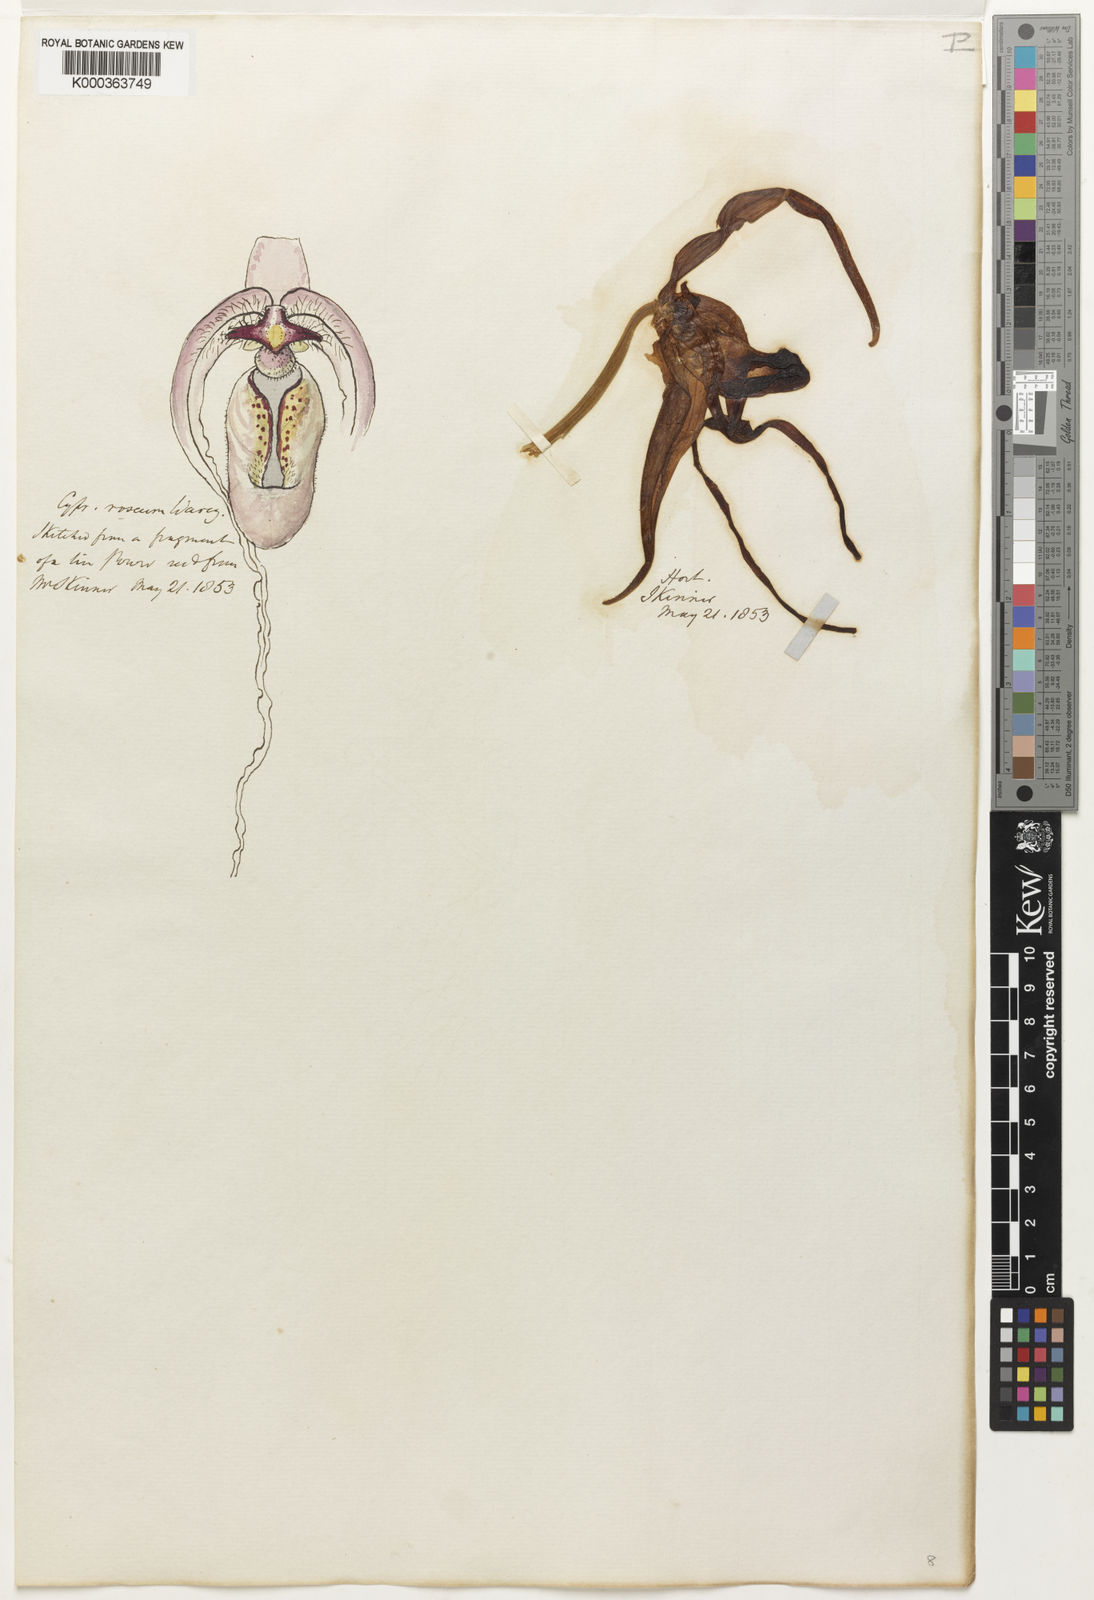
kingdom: Plantae
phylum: Tracheophyta
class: Liliopsida
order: Asparagales
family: Orchidaceae
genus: Phragmipedium
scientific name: Phragmipedium
